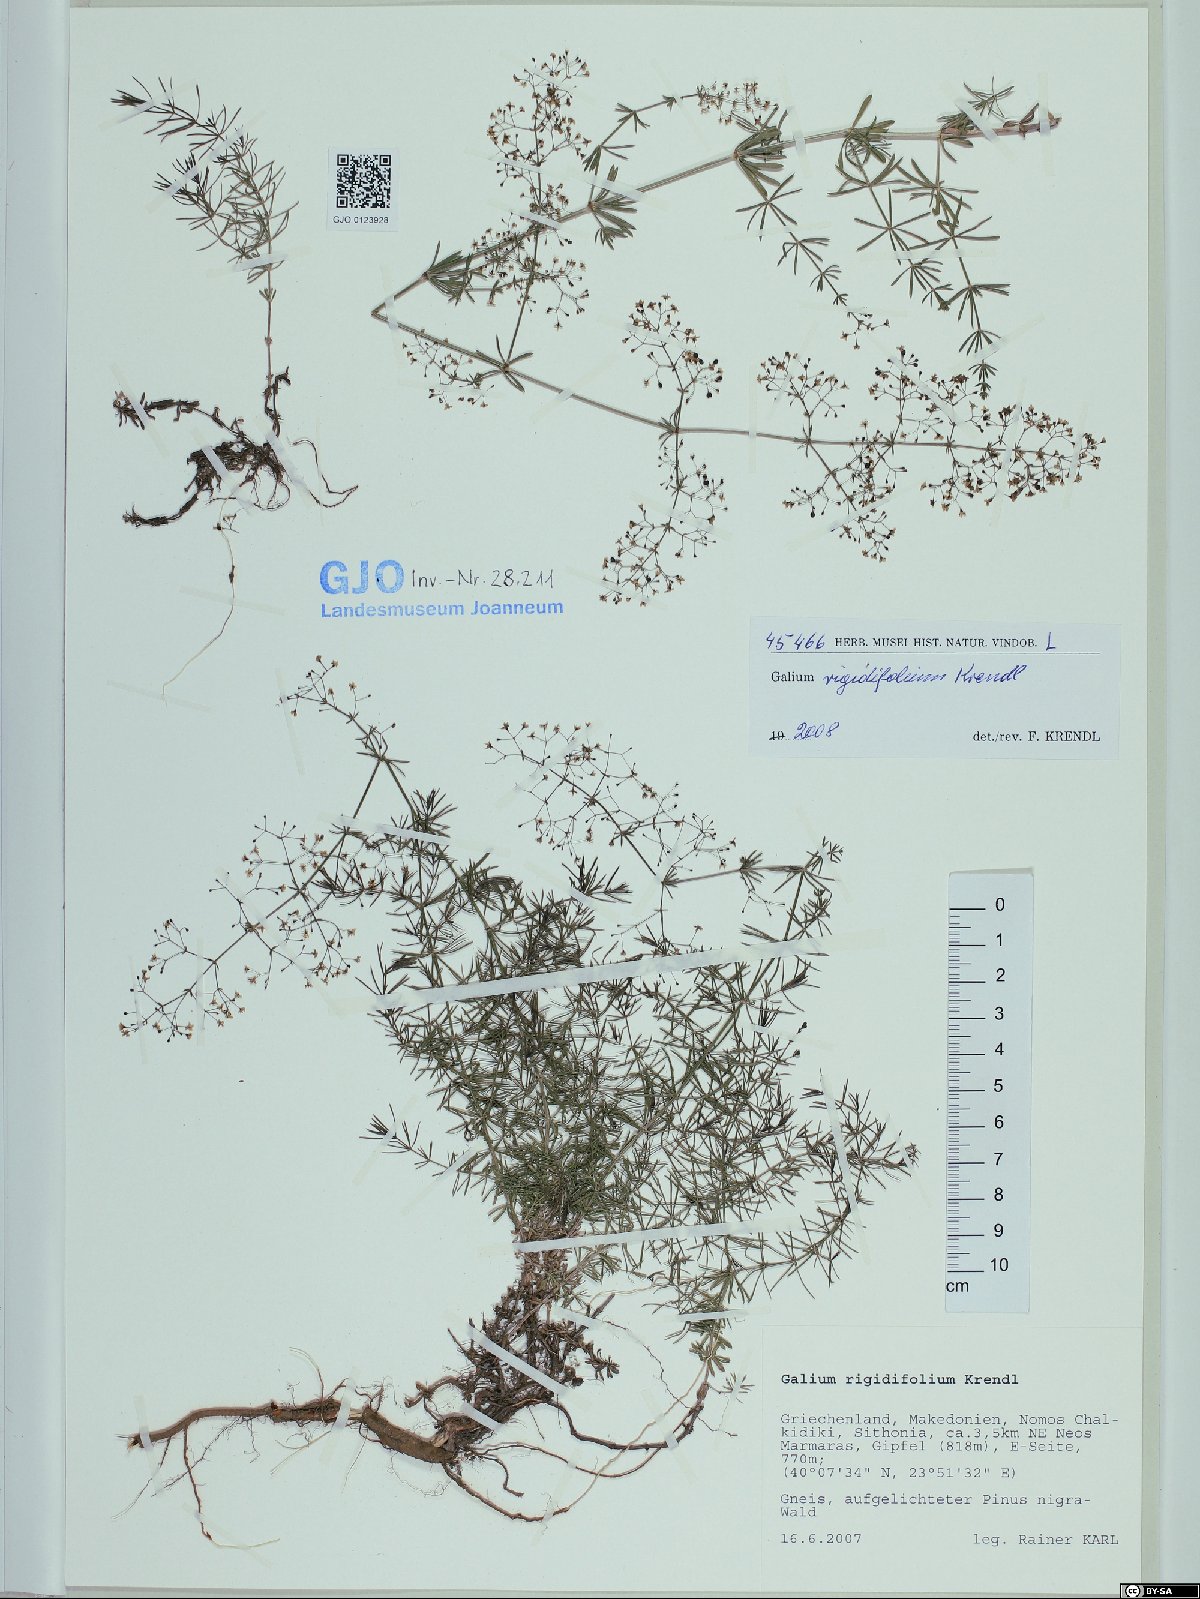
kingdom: Plantae
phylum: Tracheophyta
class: Magnoliopsida
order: Gentianales
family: Rubiaceae
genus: Galium
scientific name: Galium rigidifolium
